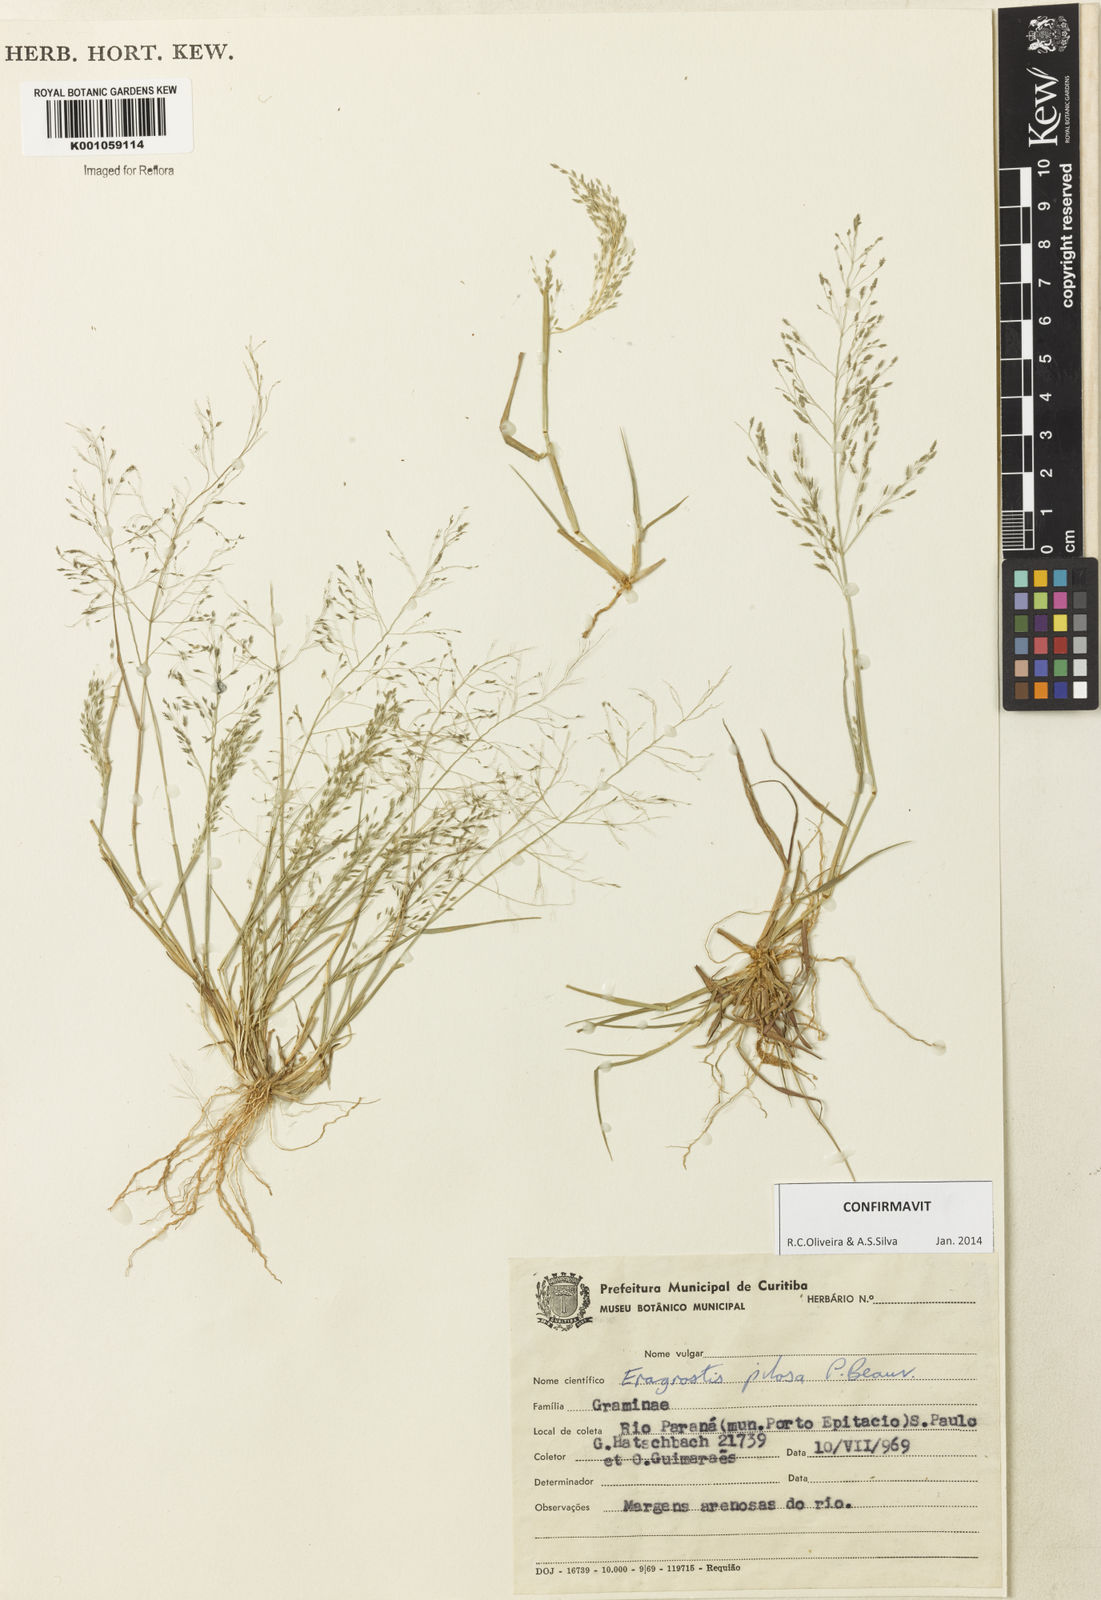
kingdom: Plantae
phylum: Tracheophyta
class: Liliopsida
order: Poales
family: Poaceae
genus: Eragrostis
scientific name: Eragrostis pilosa
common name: Indian lovegrass
